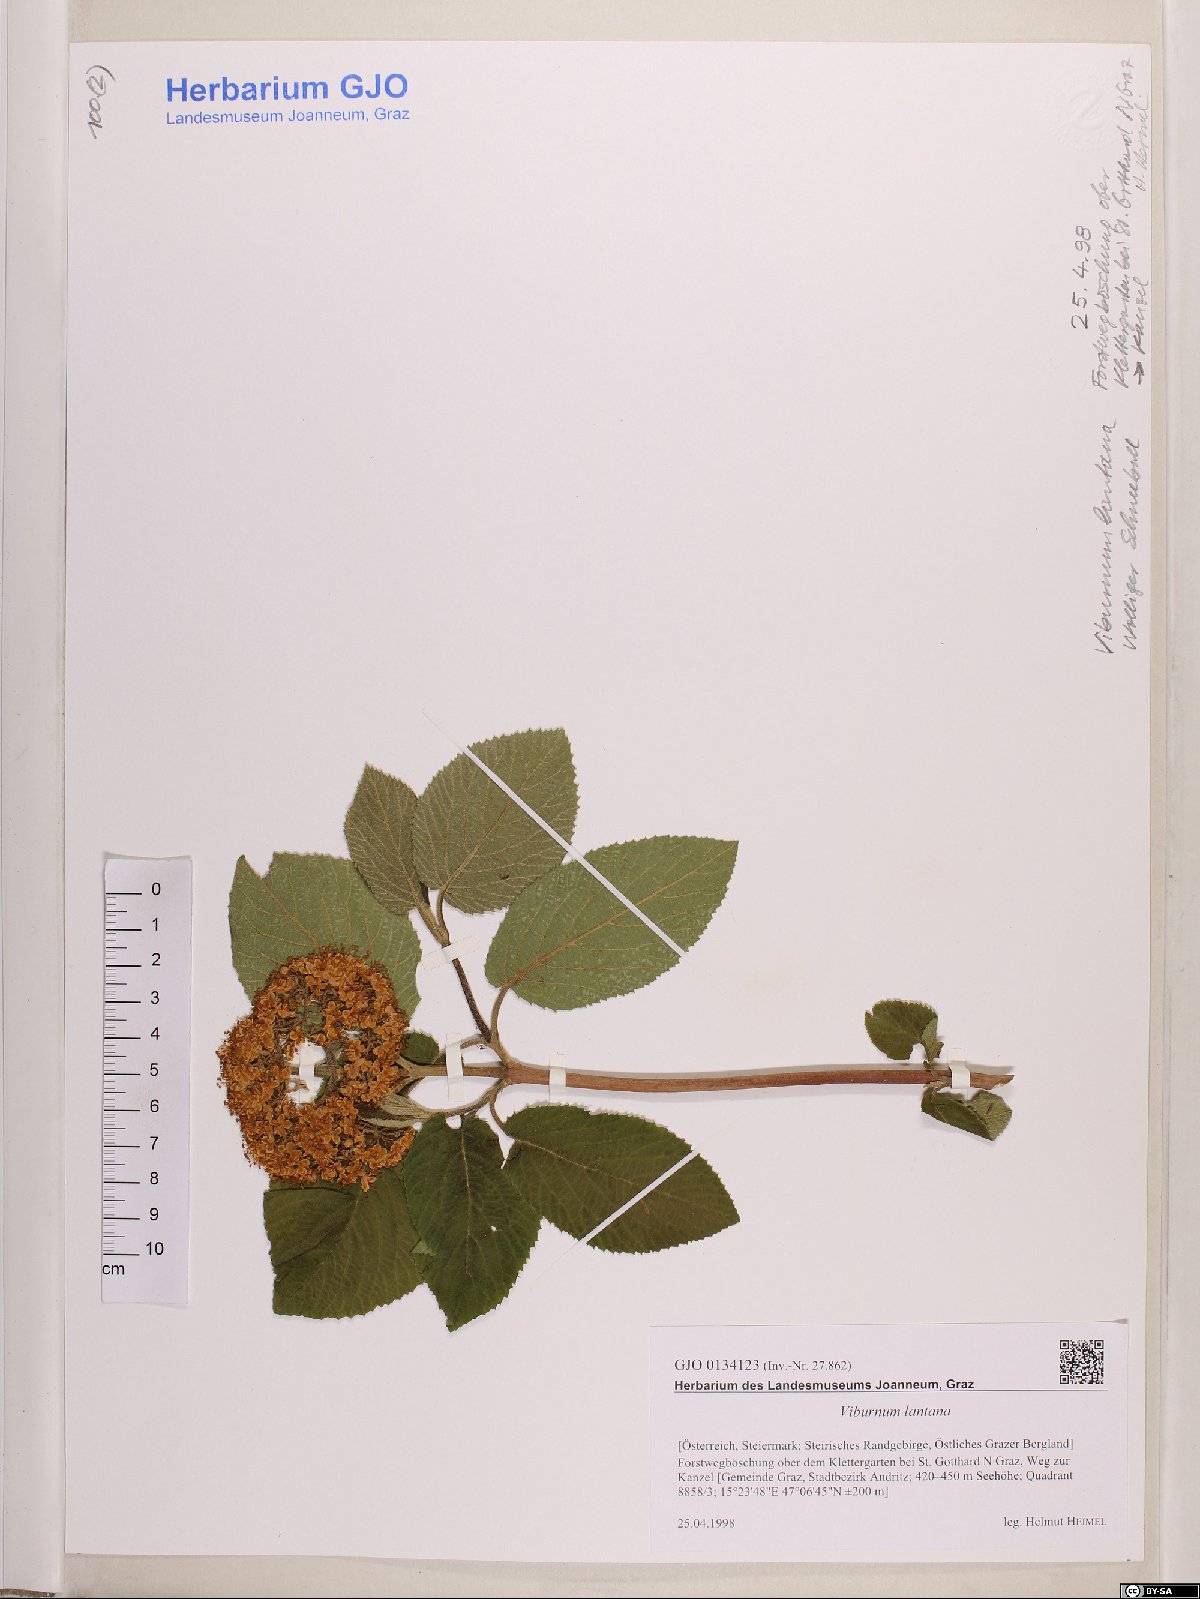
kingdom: Plantae
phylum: Tracheophyta
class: Magnoliopsida
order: Dipsacales
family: Viburnaceae
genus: Viburnum
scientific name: Viburnum lantana
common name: Wayfaring tree
